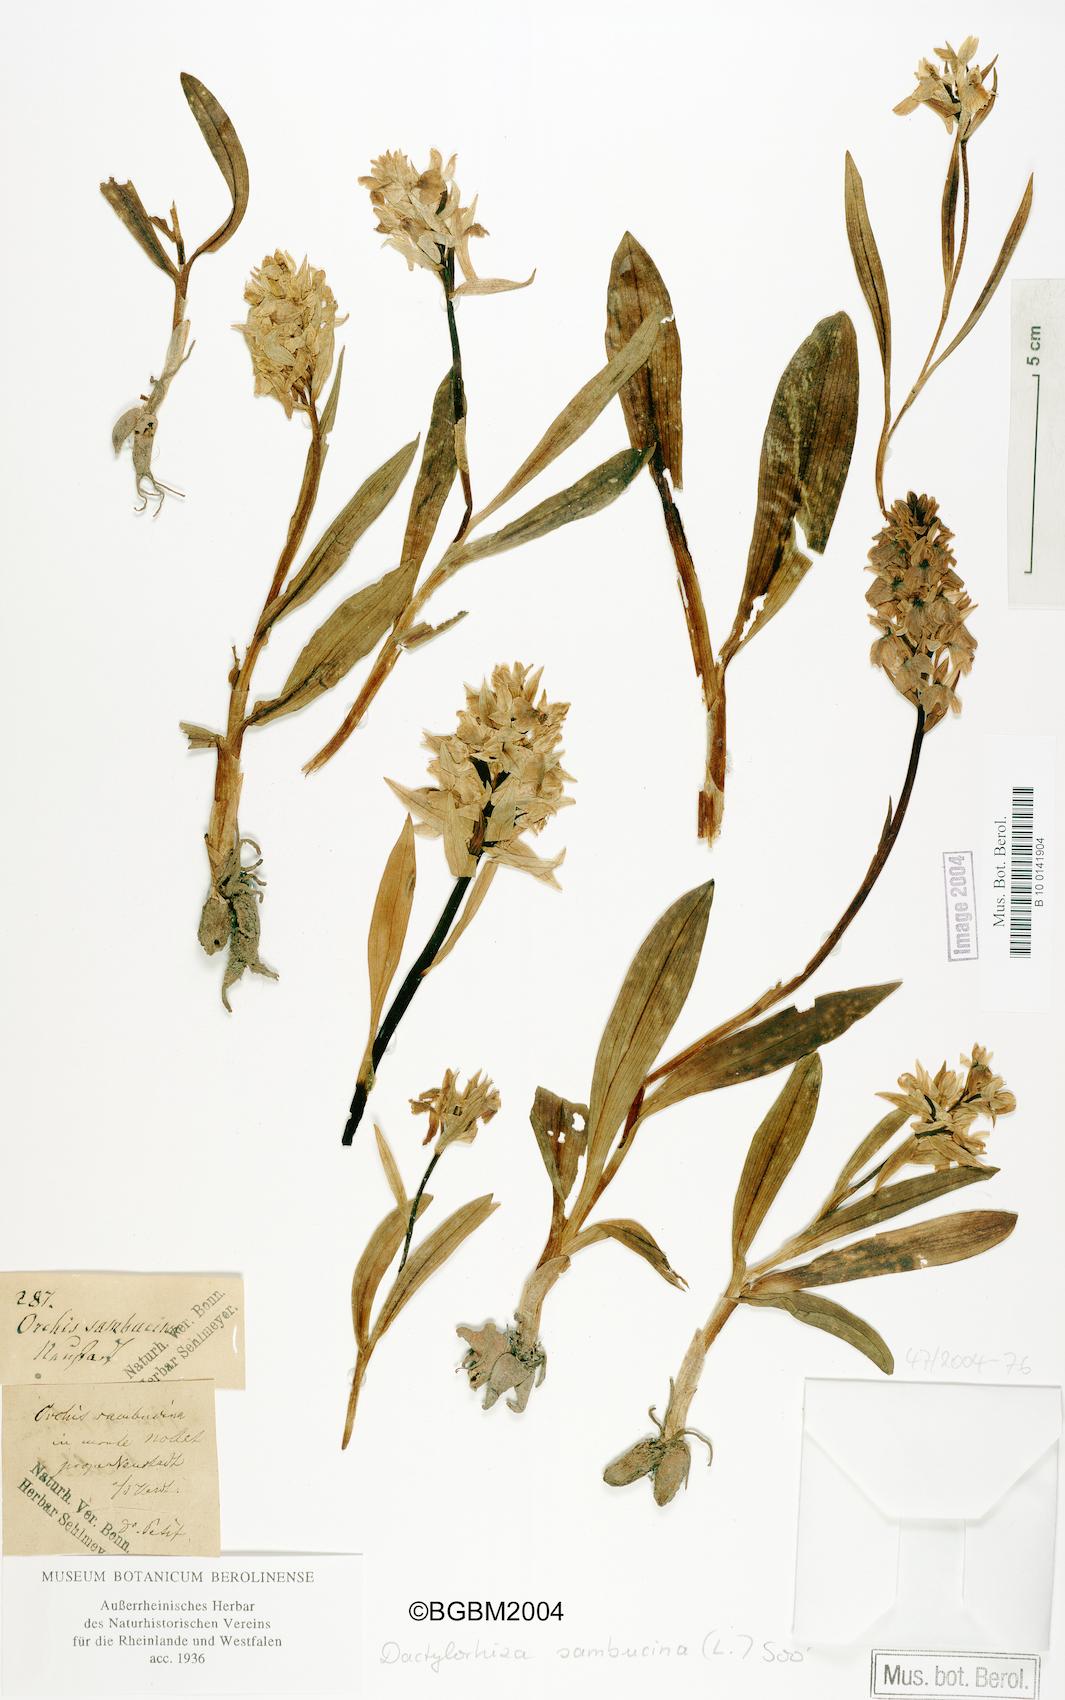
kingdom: Plantae
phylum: Tracheophyta
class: Liliopsida
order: Asparagales
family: Orchidaceae
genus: Dactylorhiza
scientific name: Dactylorhiza sambucina
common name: Elder-flowered orchid
